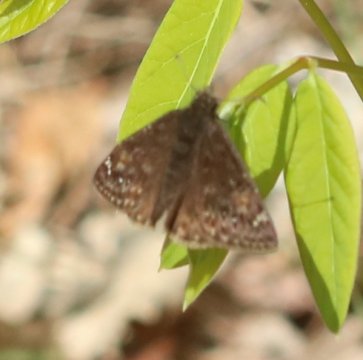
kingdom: Animalia
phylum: Arthropoda
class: Insecta
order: Lepidoptera
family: Hesperiidae
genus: Gesta
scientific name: Gesta
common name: Juvenal's Duskywing
